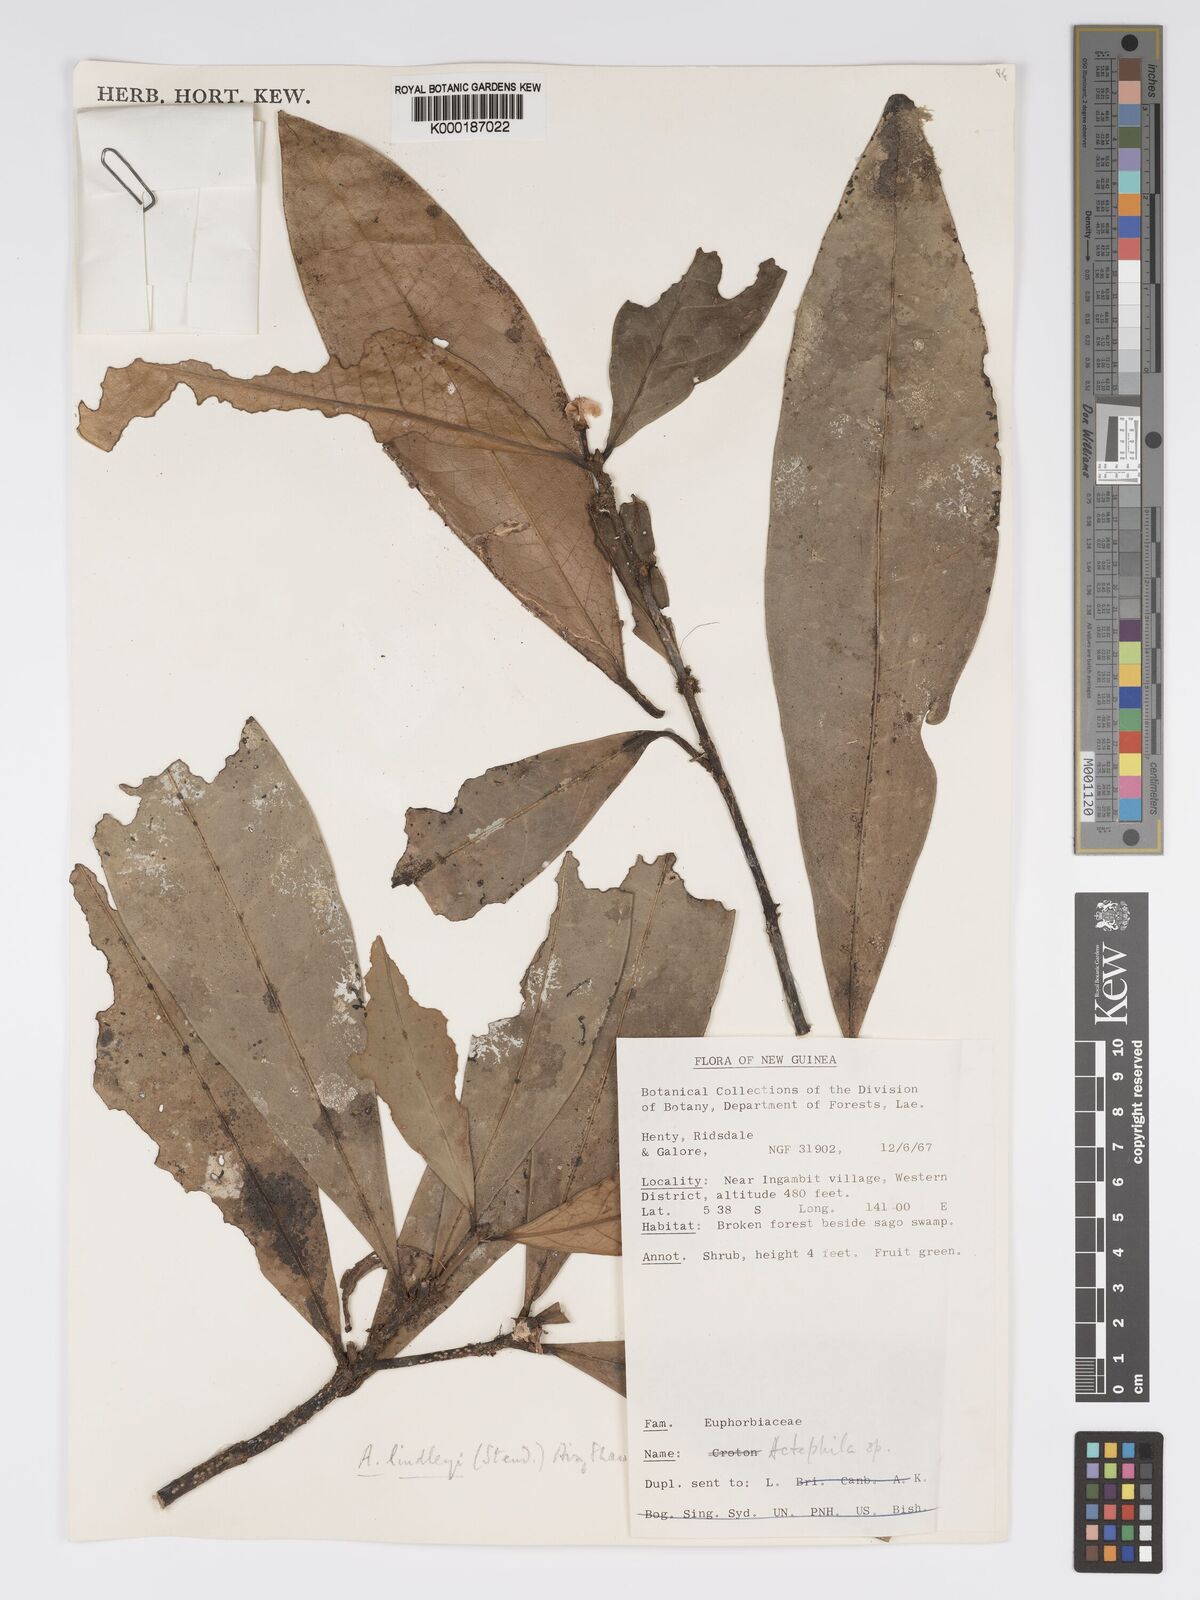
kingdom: Plantae
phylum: Tracheophyta
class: Magnoliopsida
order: Malpighiales
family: Phyllanthaceae
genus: Actephila
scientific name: Actephila lindleyi
